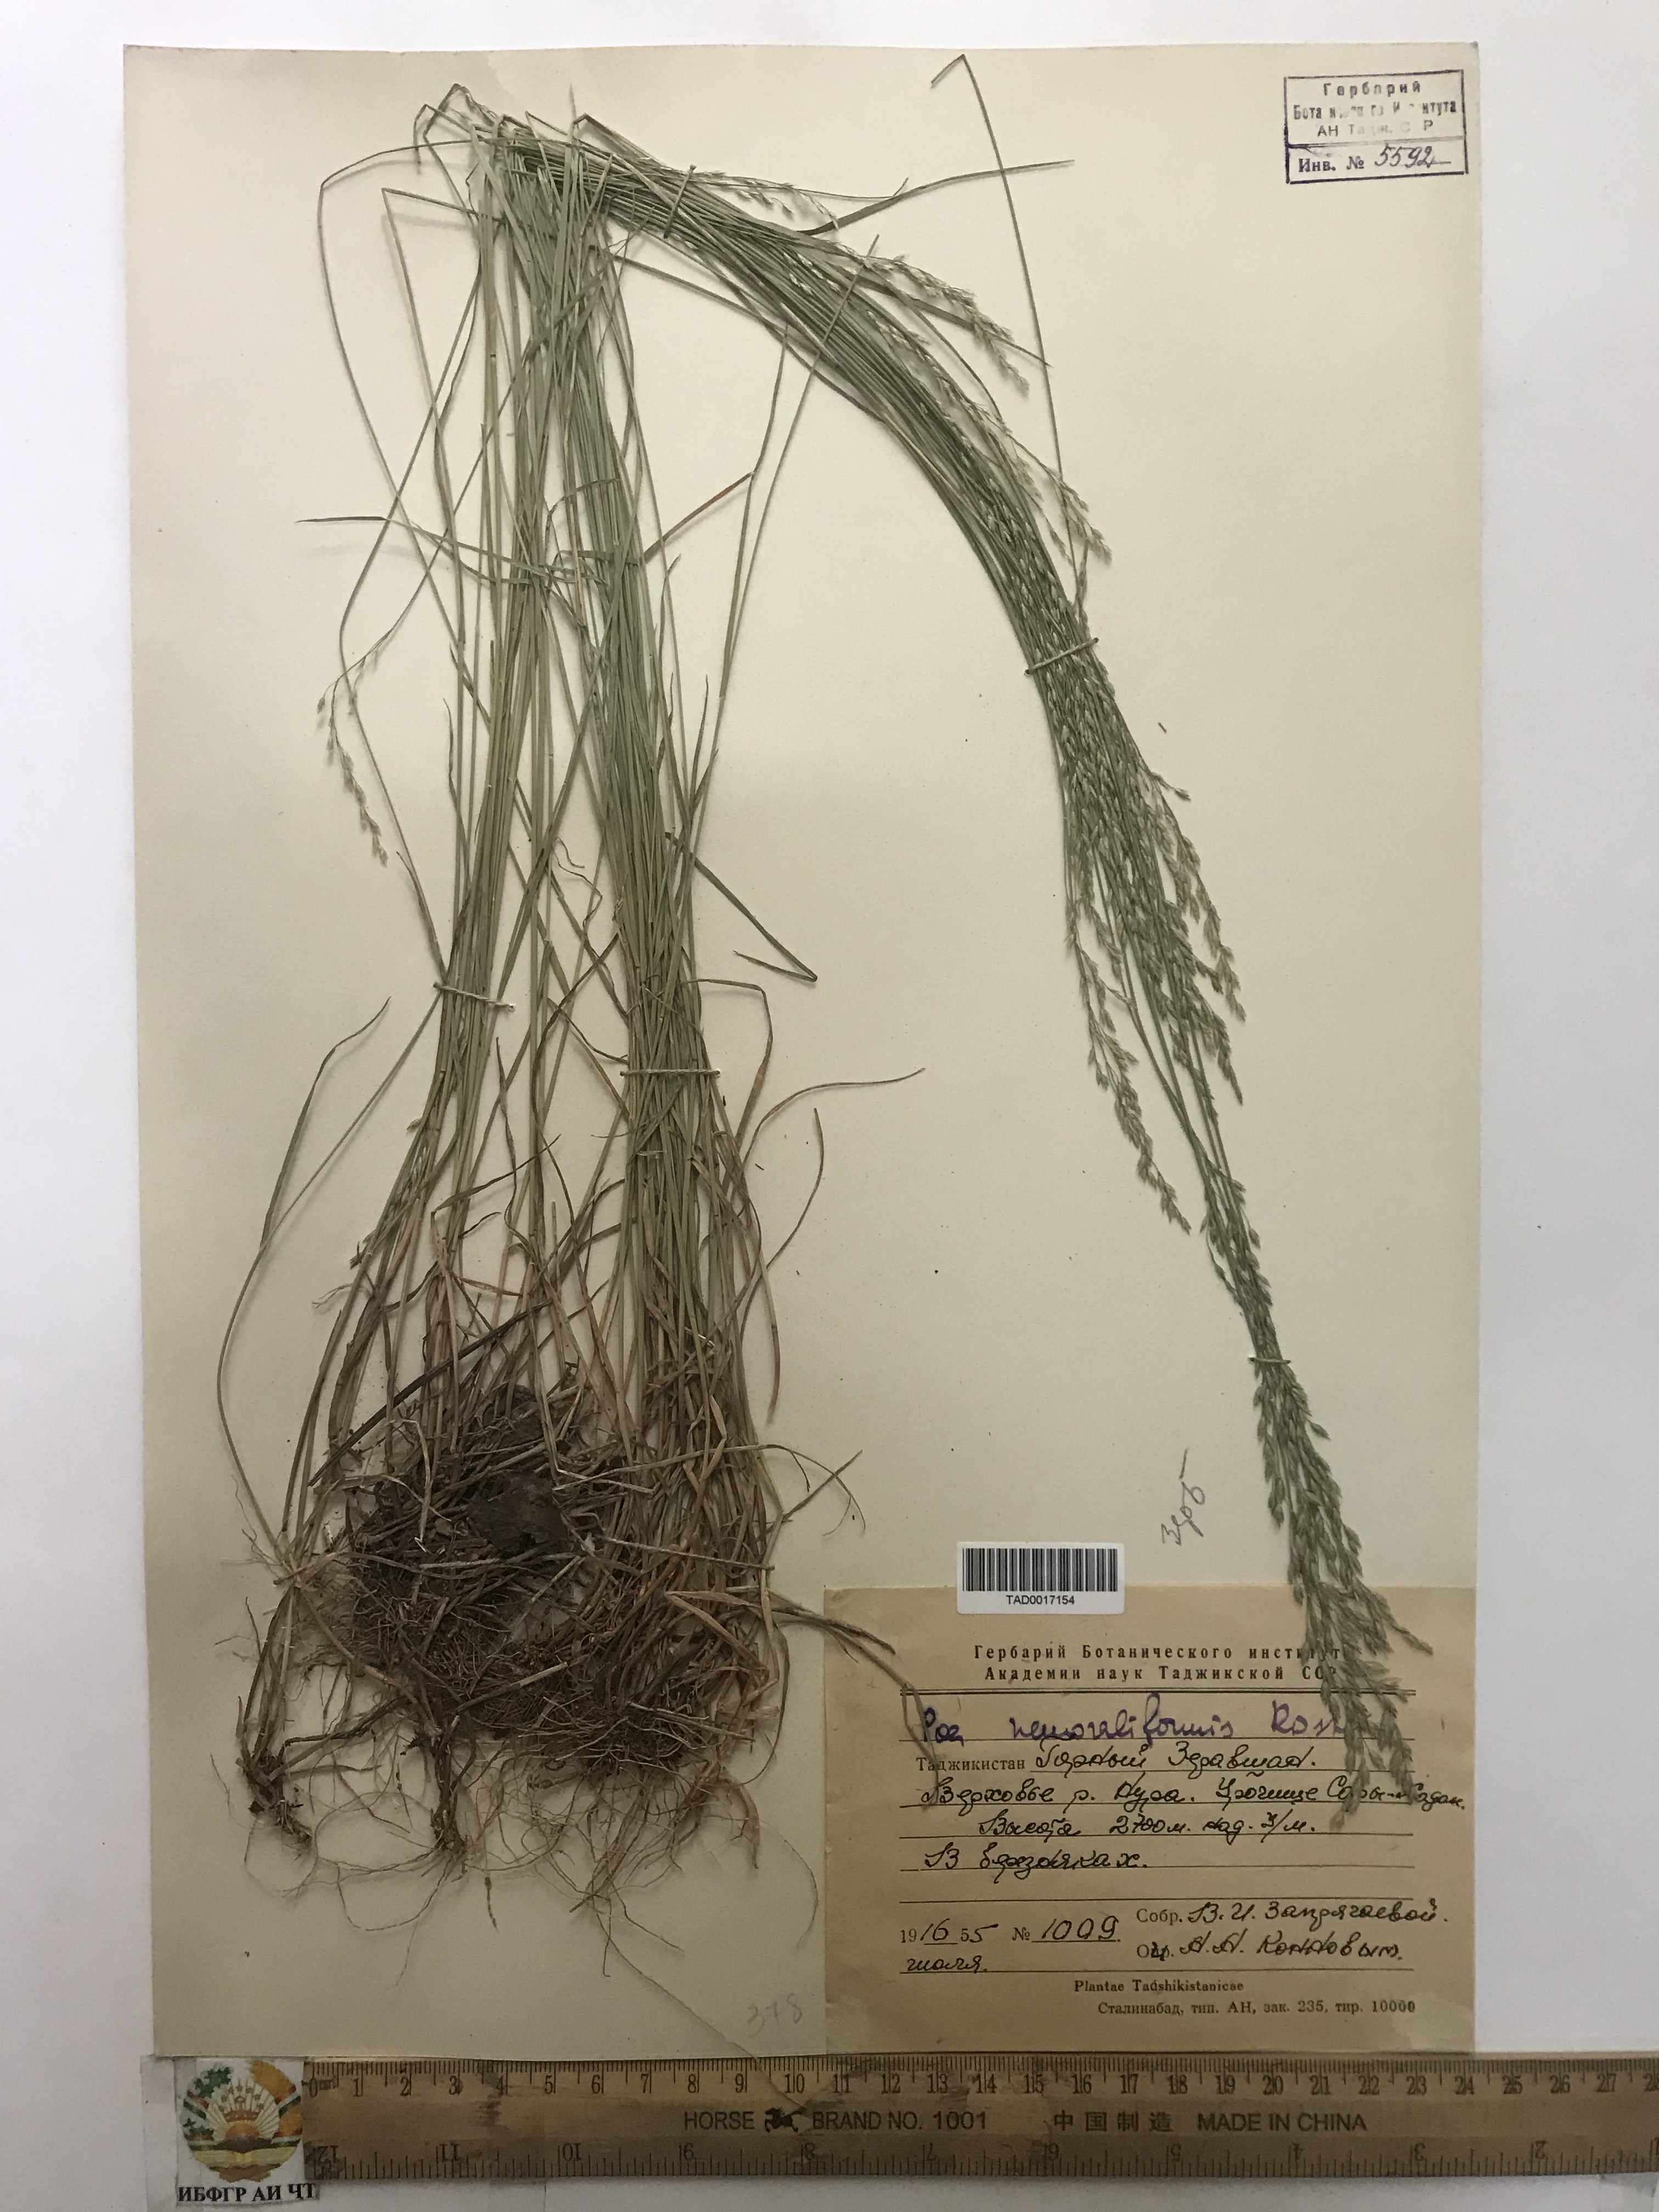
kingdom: Plantae
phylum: Tracheophyta
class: Liliopsida
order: Poales
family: Poaceae
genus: Poa
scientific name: Poa urssulensis
